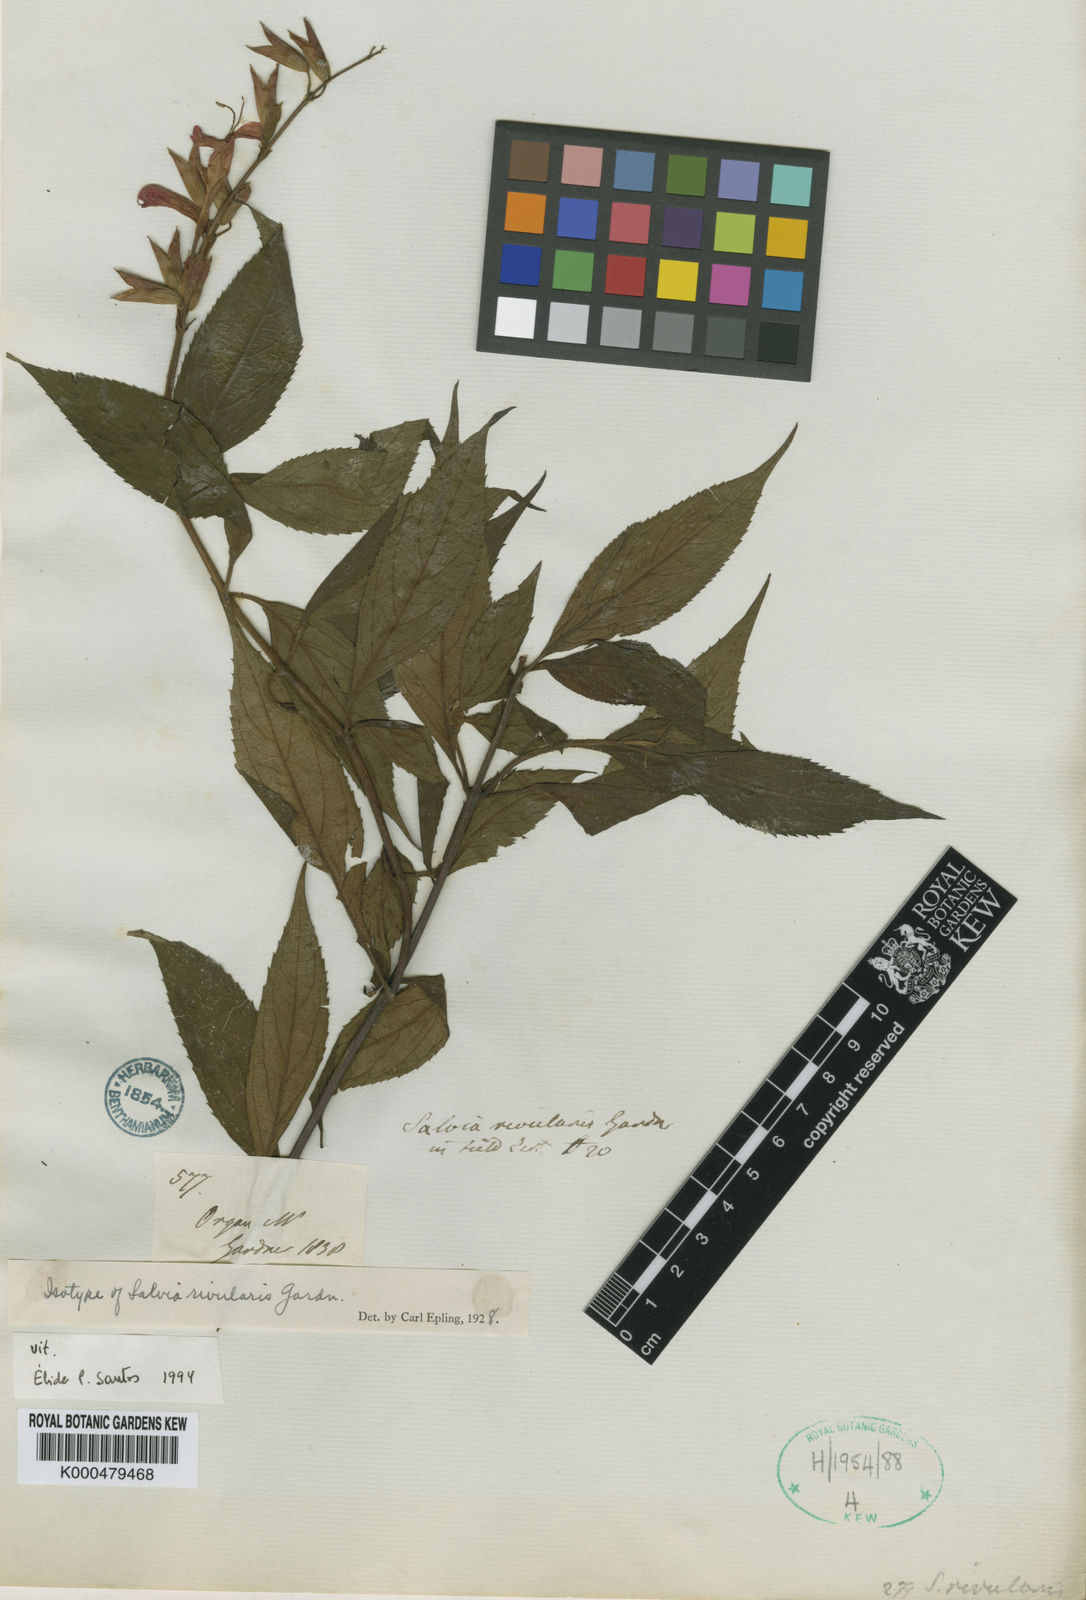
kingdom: Plantae
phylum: Tracheophyta
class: Magnoliopsida
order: Lamiales
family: Lamiaceae
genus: Salvia
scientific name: Salvia rivularis
